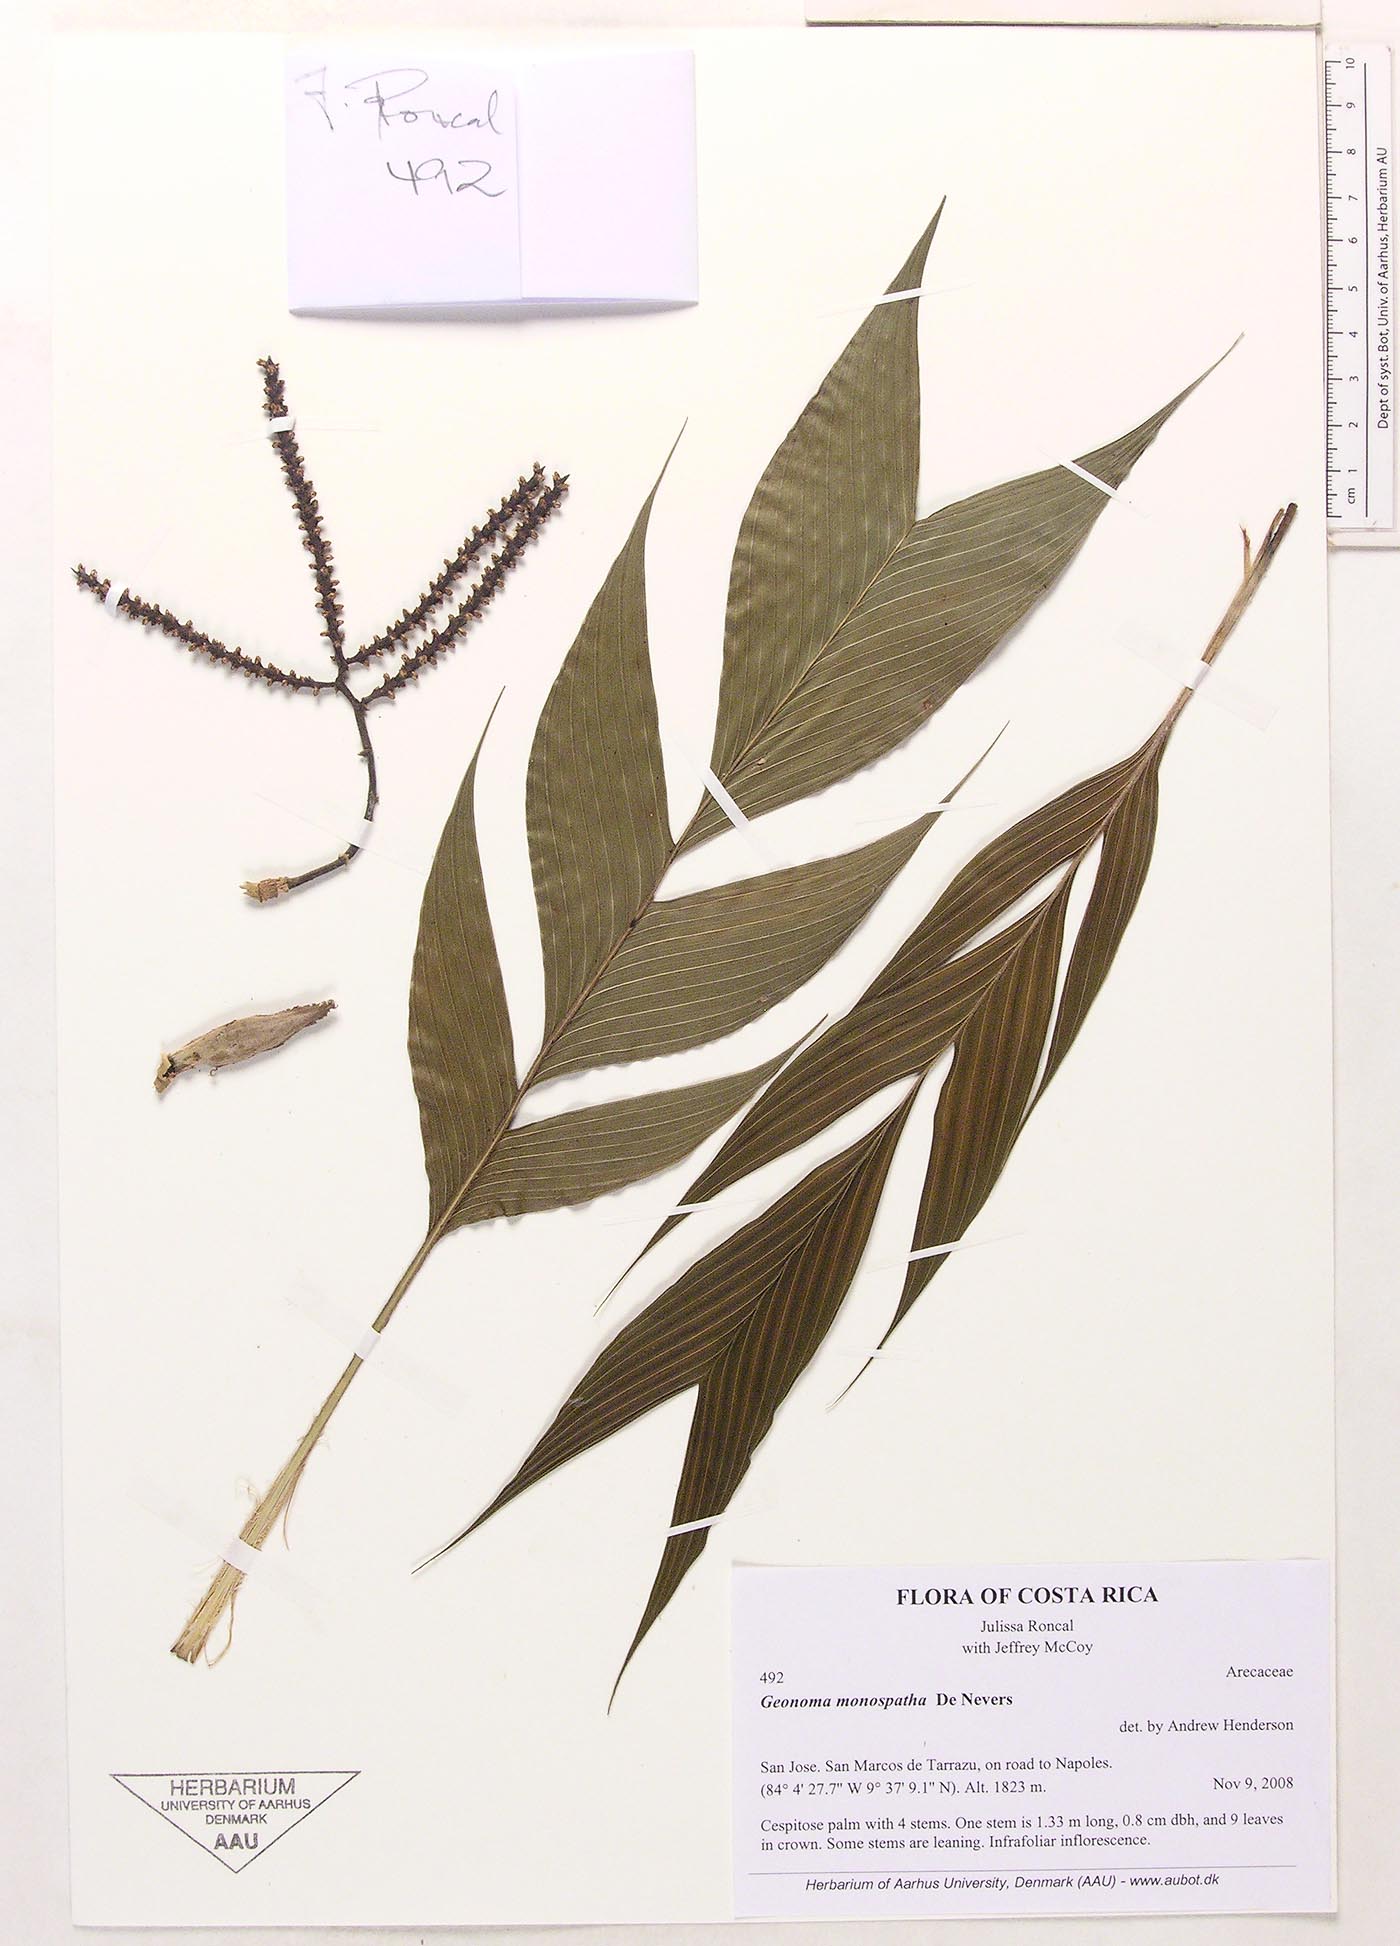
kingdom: Plantae
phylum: Tracheophyta
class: Liliopsida
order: Arecales
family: Arecaceae
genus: Geonoma
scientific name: Geonoma monospatha
